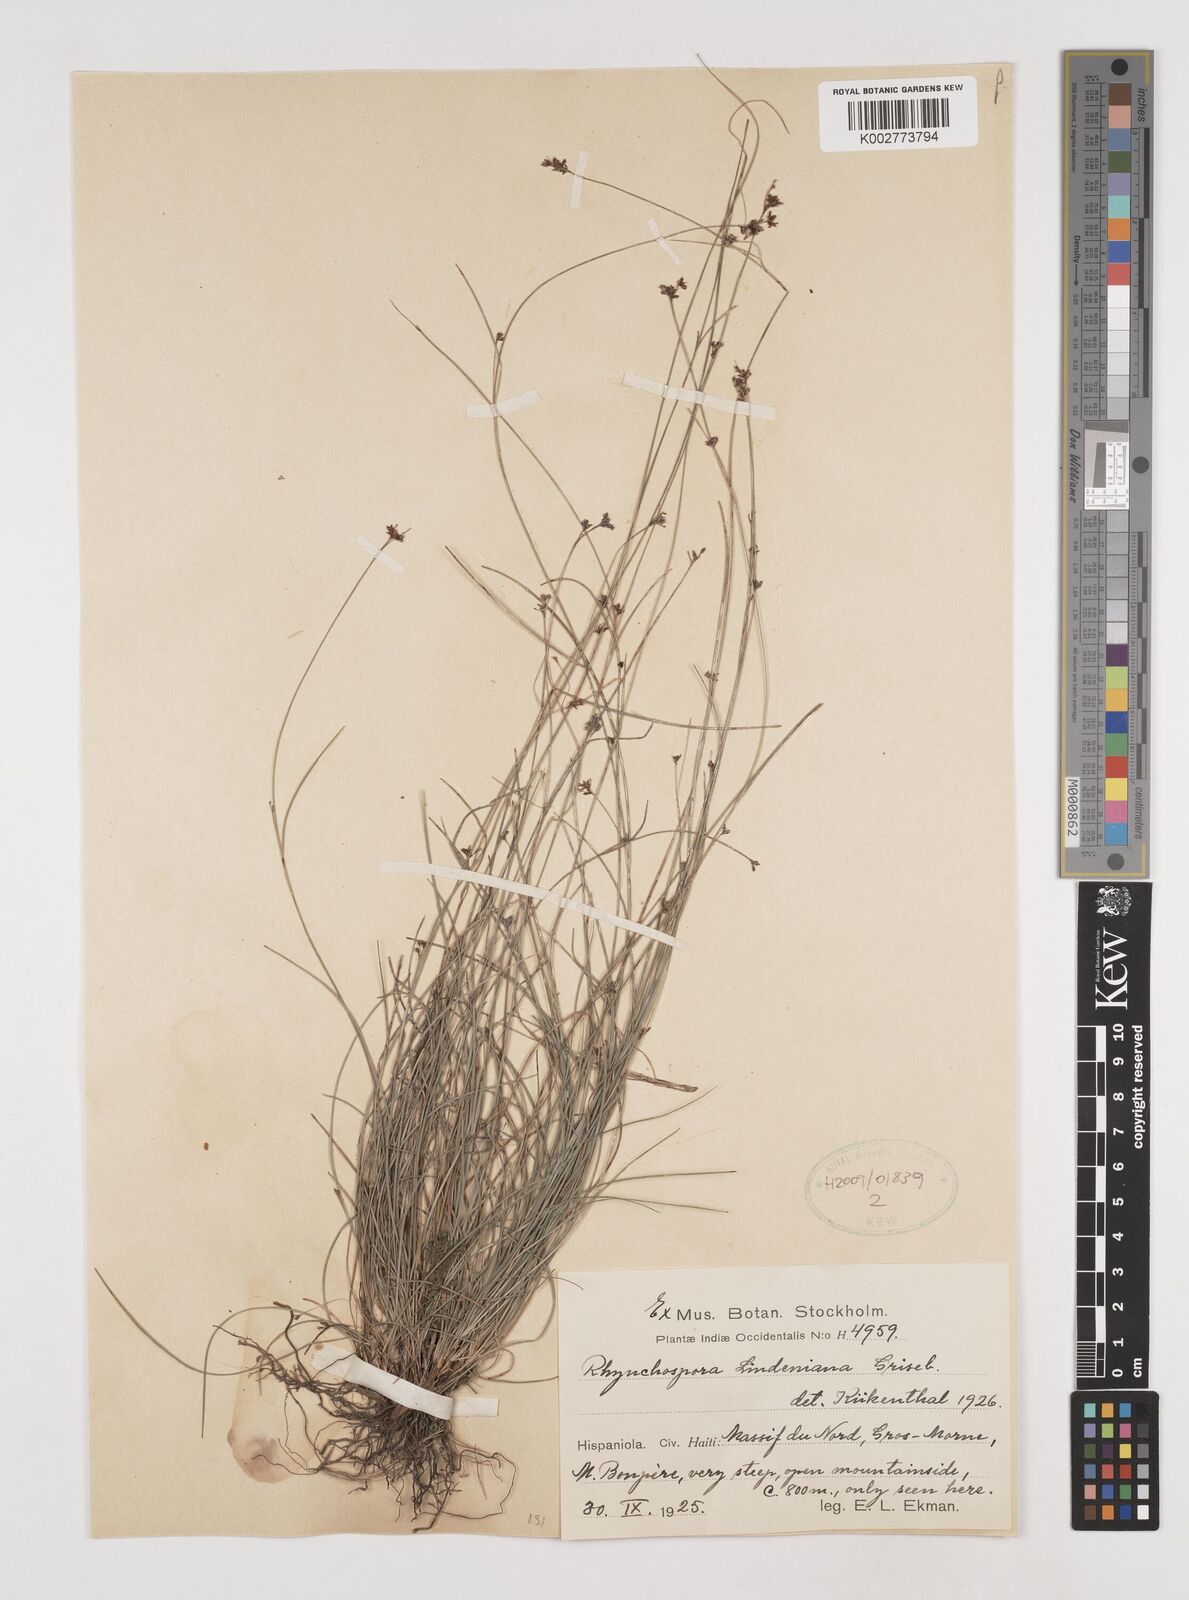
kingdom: Plantae
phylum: Tracheophyta
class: Liliopsida
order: Poales
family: Cyperaceae
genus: Rhynchospora
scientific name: Rhynchospora lindeniana
